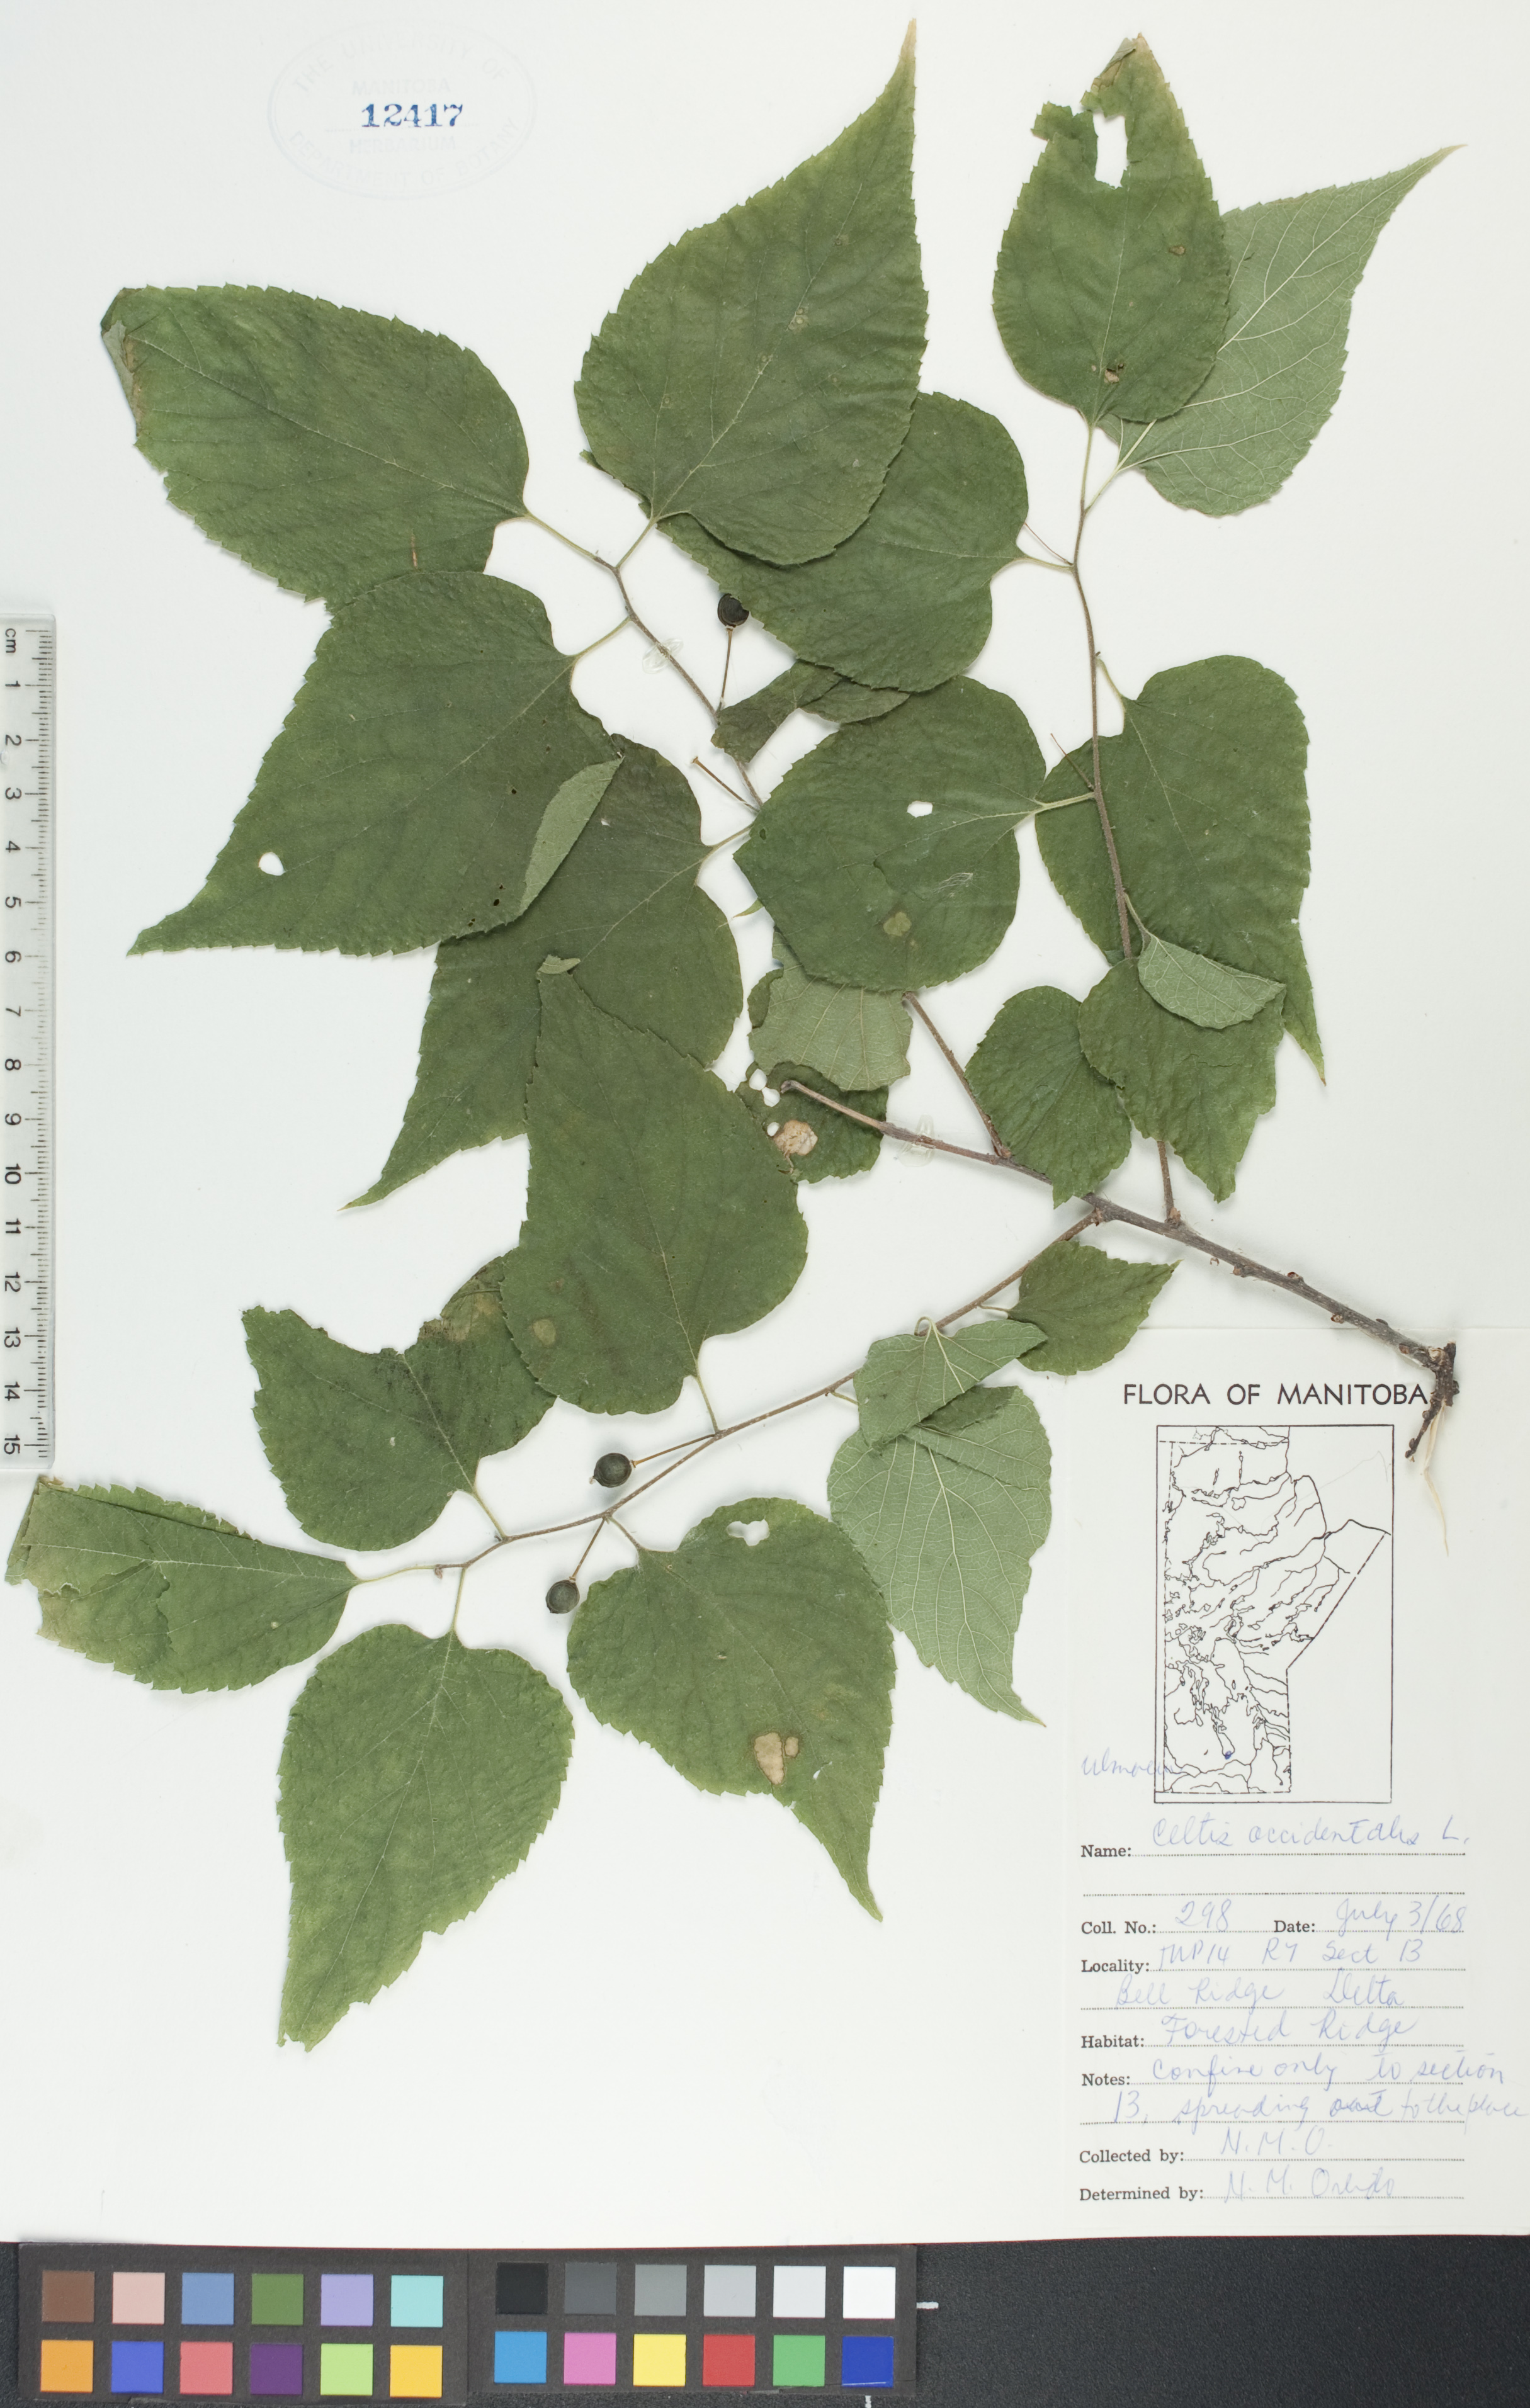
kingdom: Plantae
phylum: Tracheophyta
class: Magnoliopsida
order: Rosales
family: Cannabaceae
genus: Celtis
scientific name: Celtis occidentalis
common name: Common hackberry
